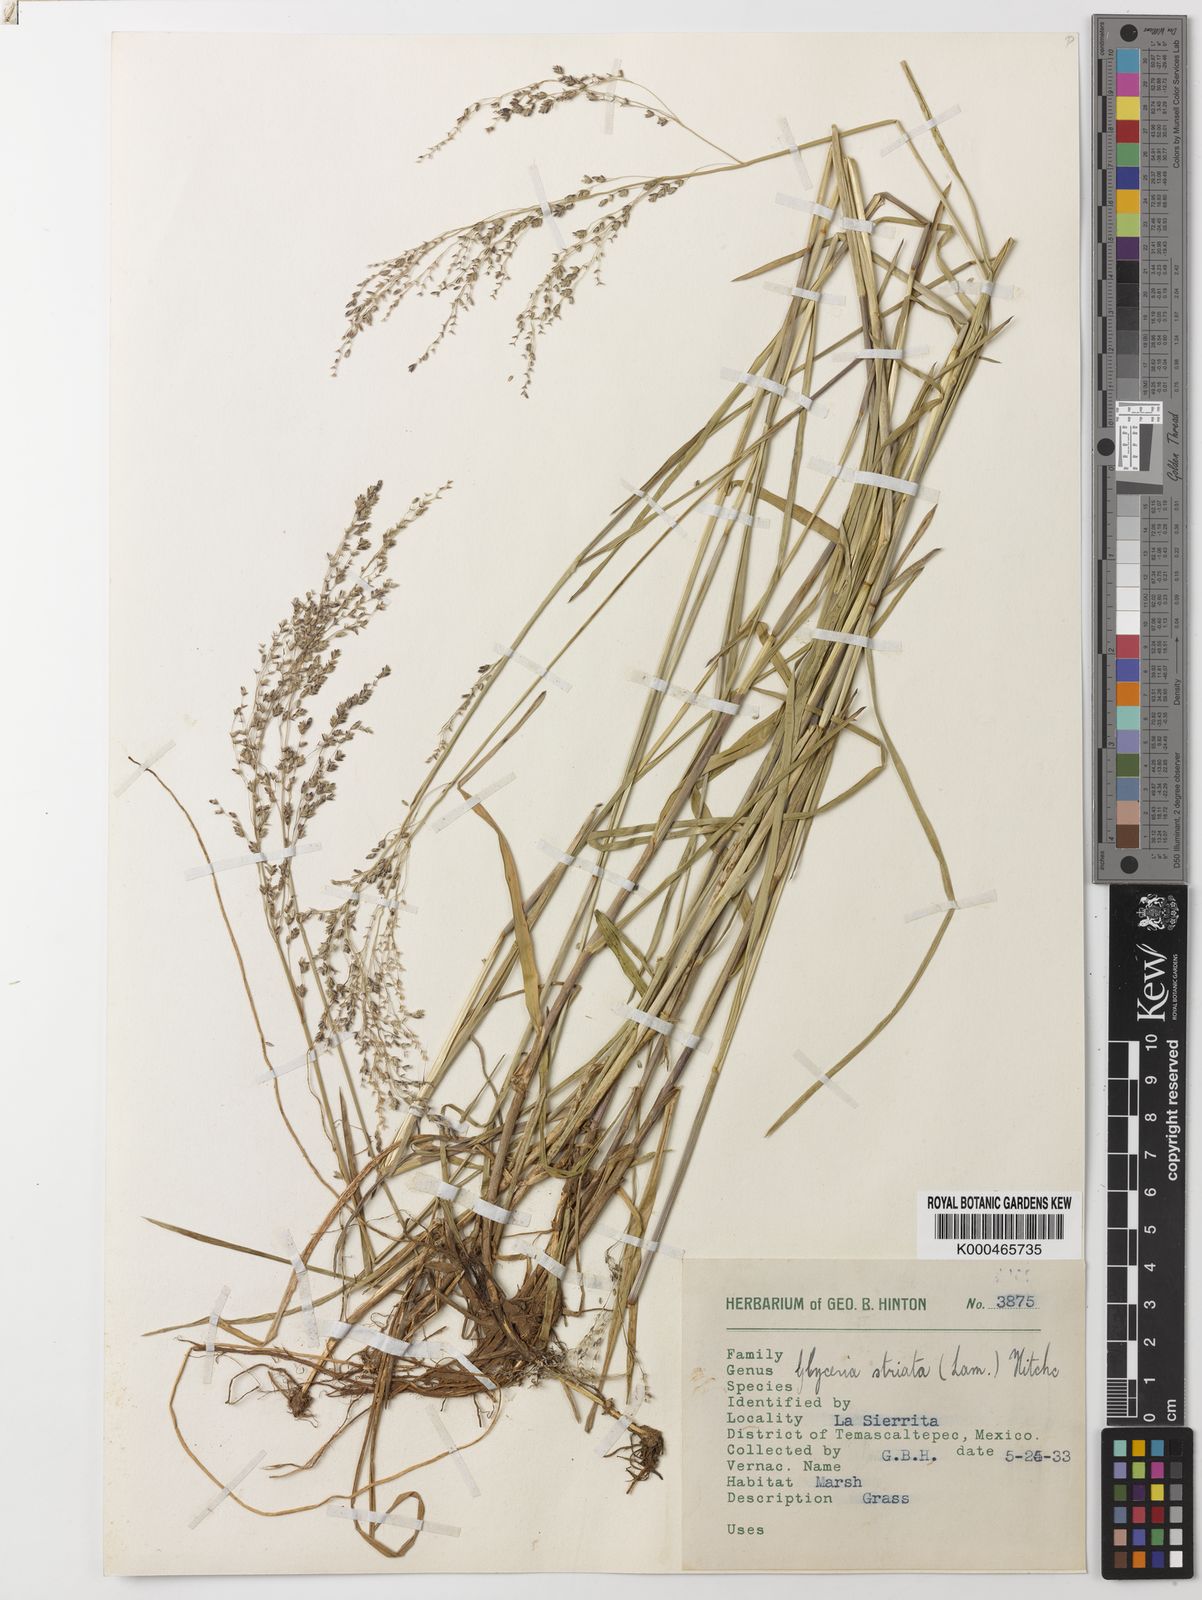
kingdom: Plantae
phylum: Tracheophyta
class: Liliopsida
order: Poales
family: Poaceae
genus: Glyceria
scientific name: Glyceria striata
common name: Fowl manna grass
